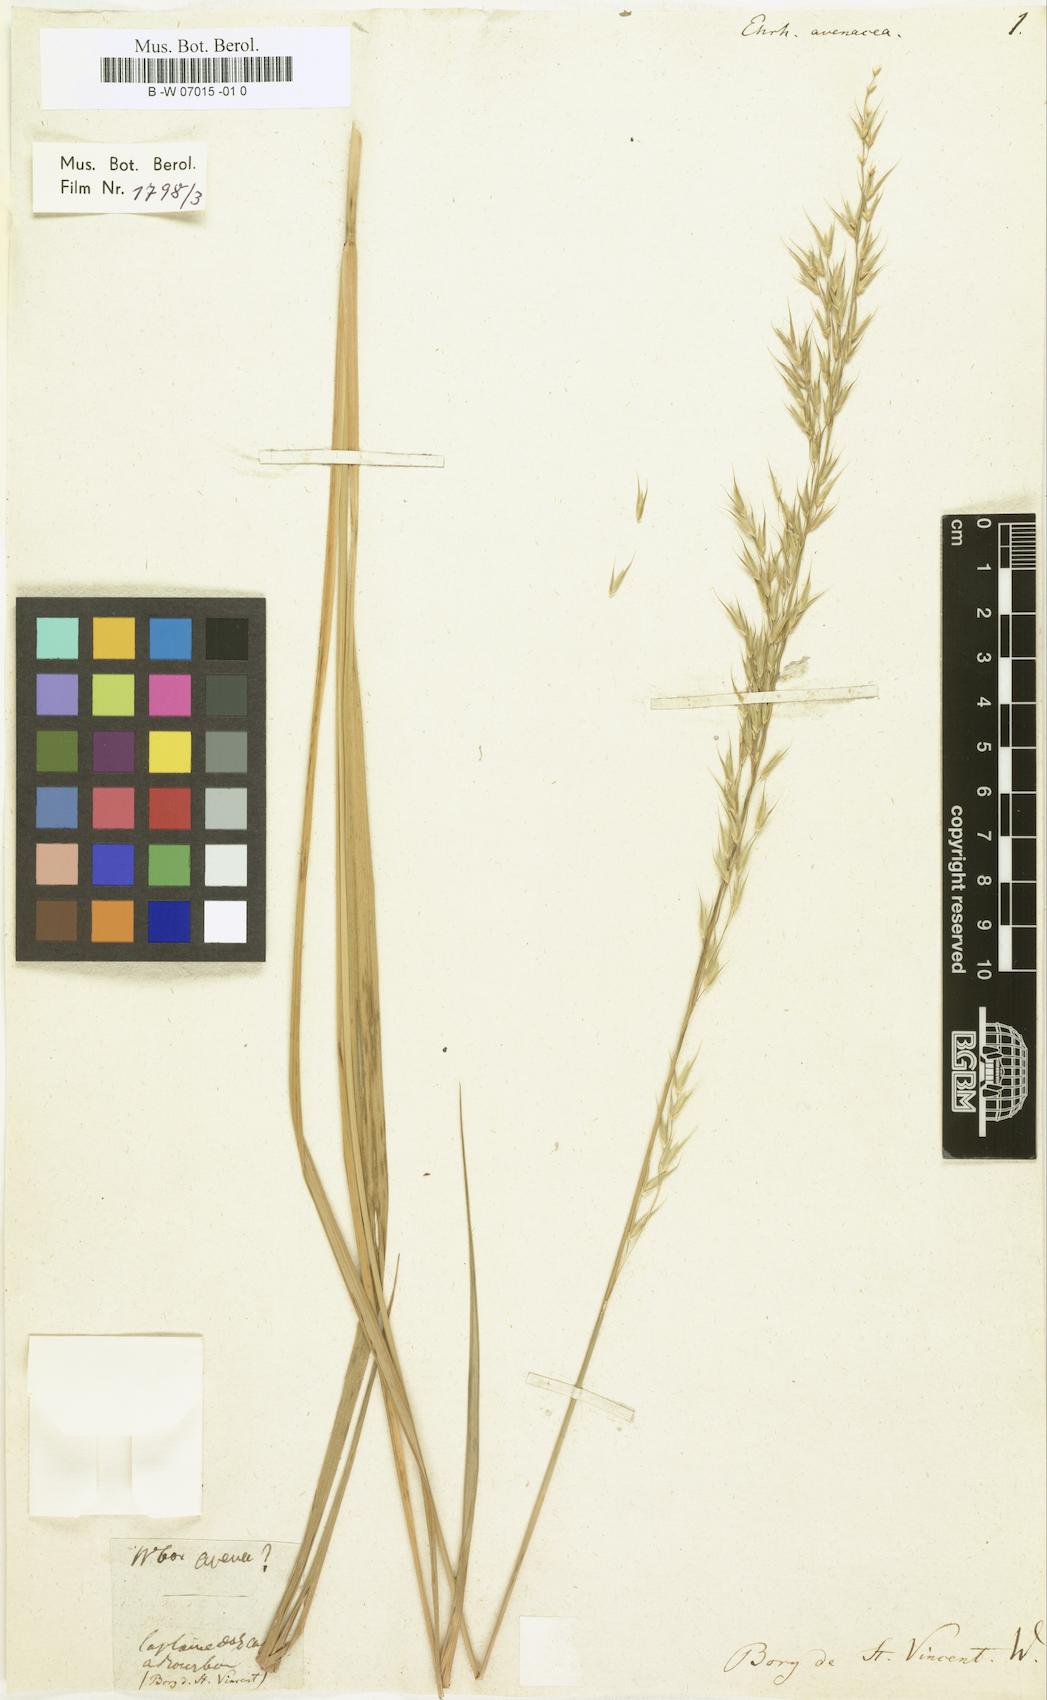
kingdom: Plantae
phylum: Tracheophyta
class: Liliopsida
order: Poales
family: Poaceae
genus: Microlaena
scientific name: Microlaena connorii
